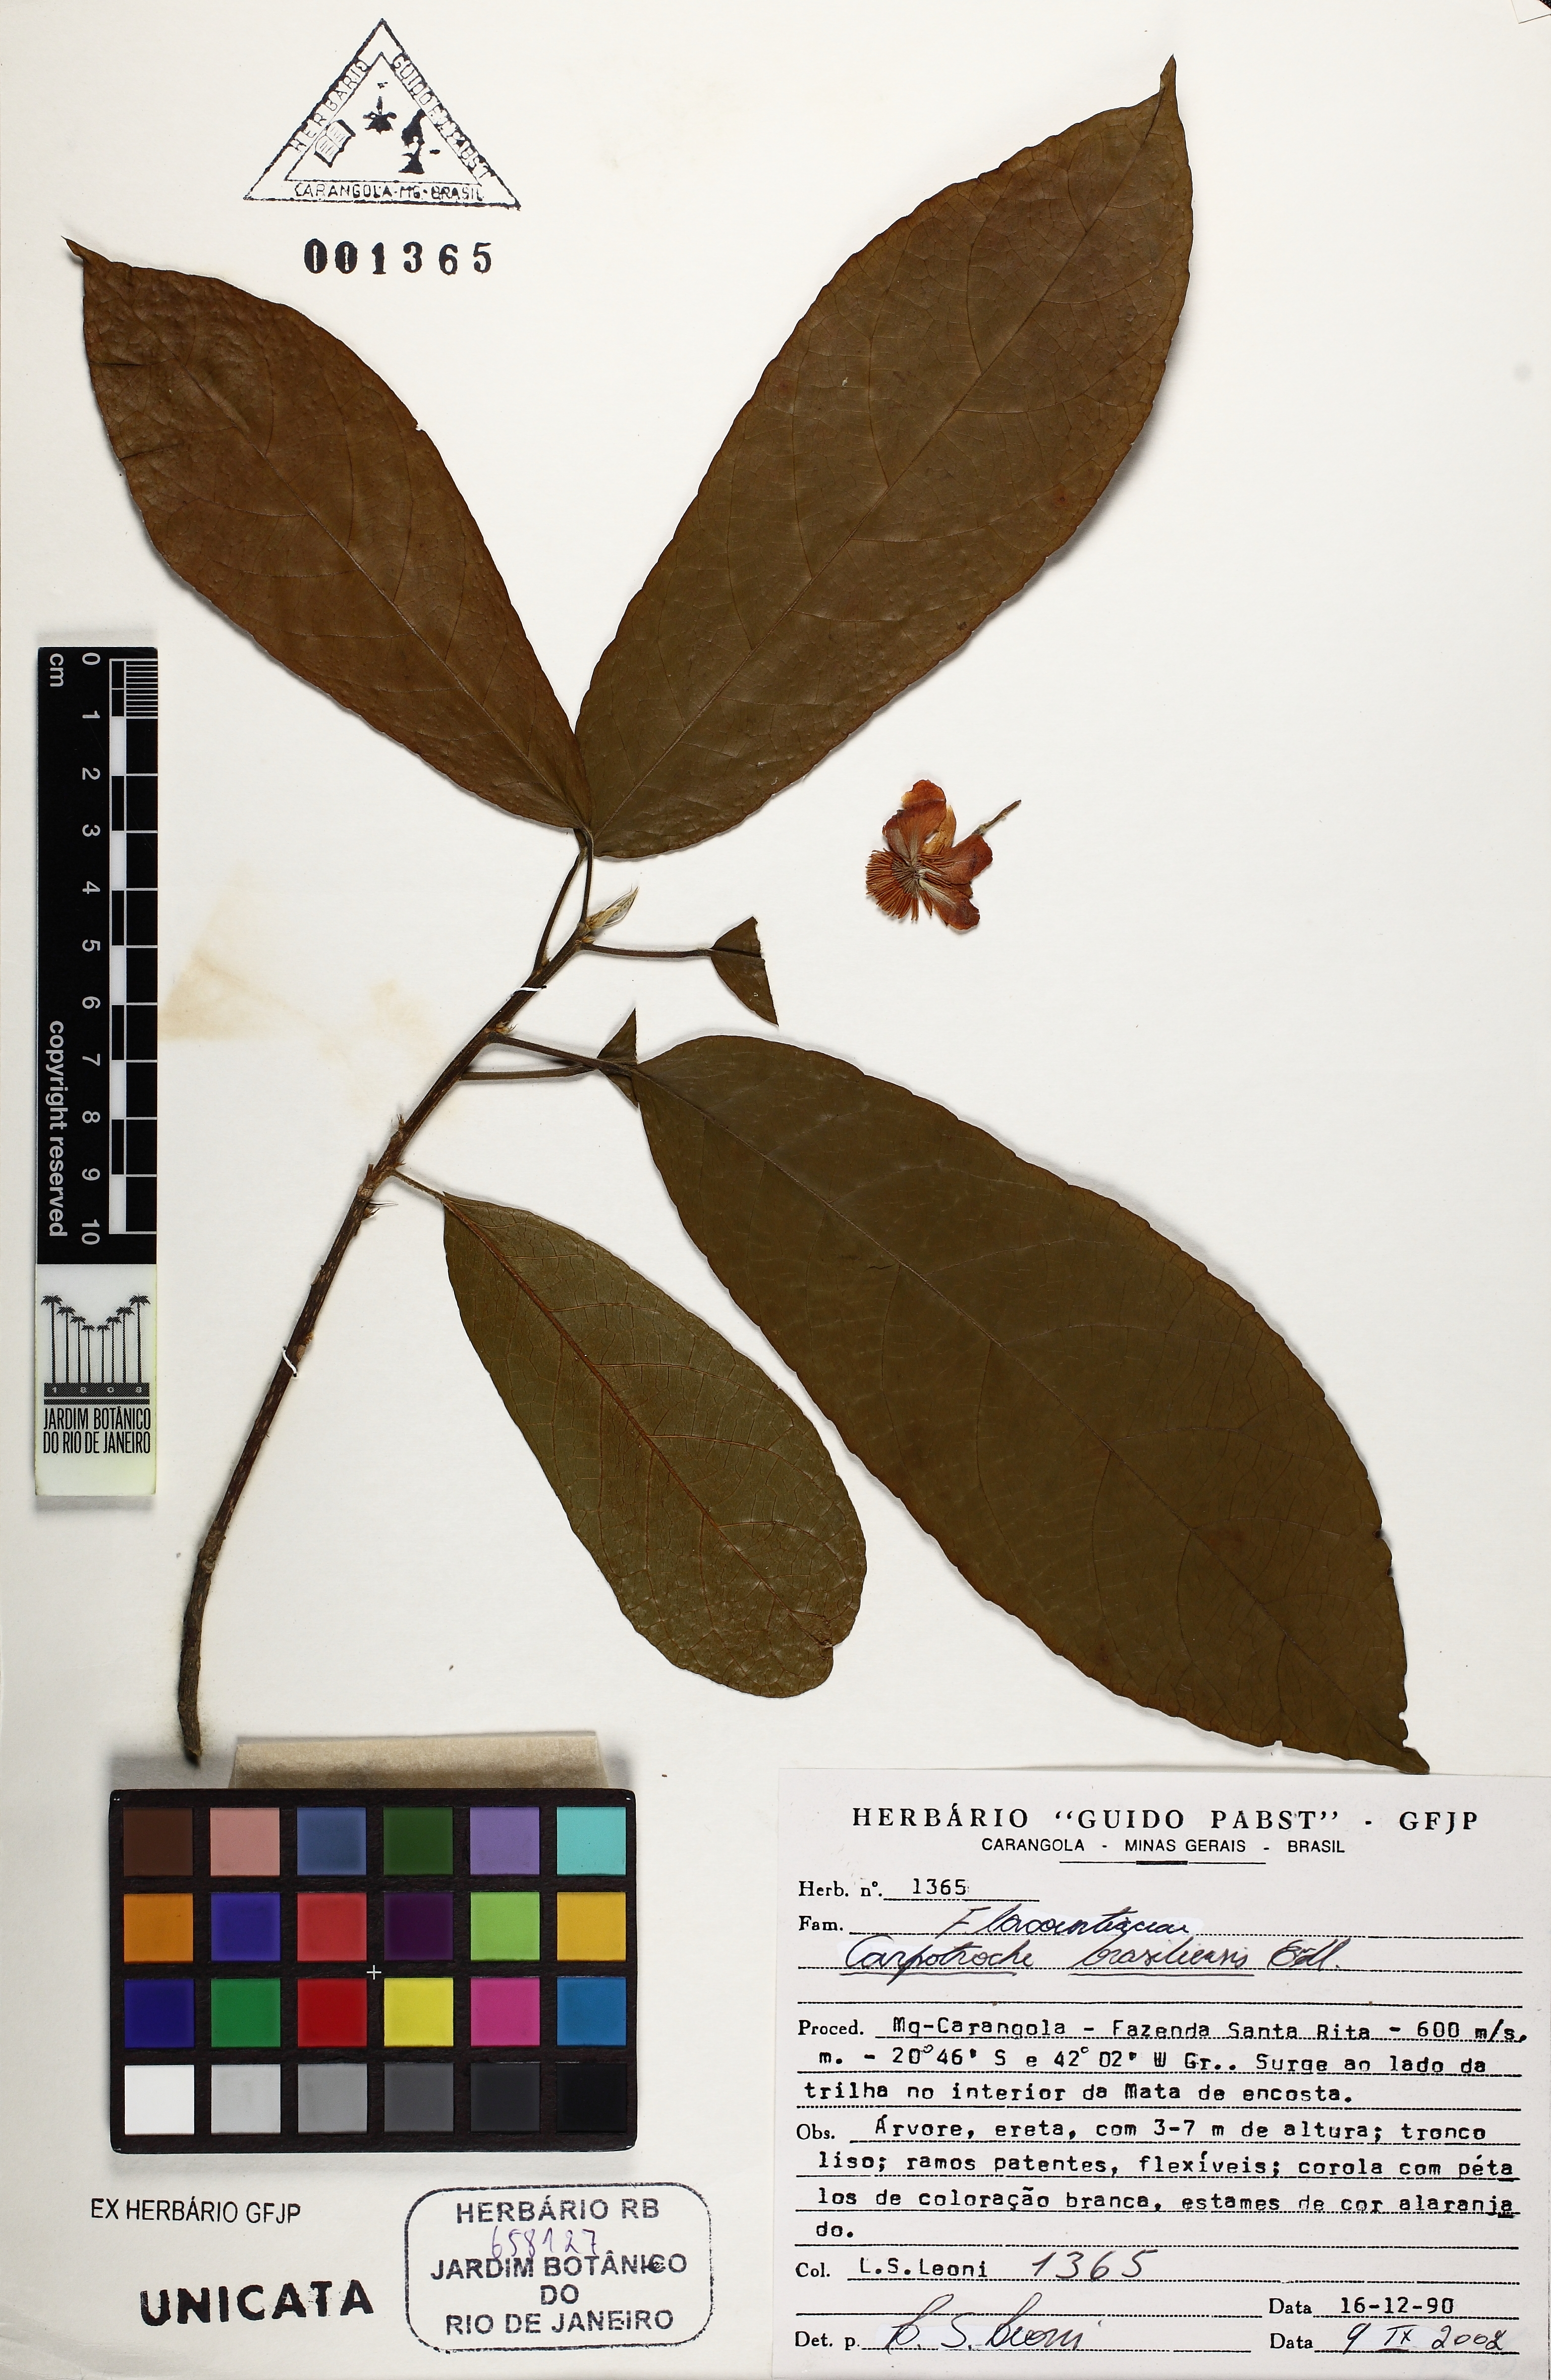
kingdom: Plantae
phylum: Tracheophyta
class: Magnoliopsida
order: Malpighiales
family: Achariaceae
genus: Carpotroche
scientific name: Carpotroche brasiliensis
